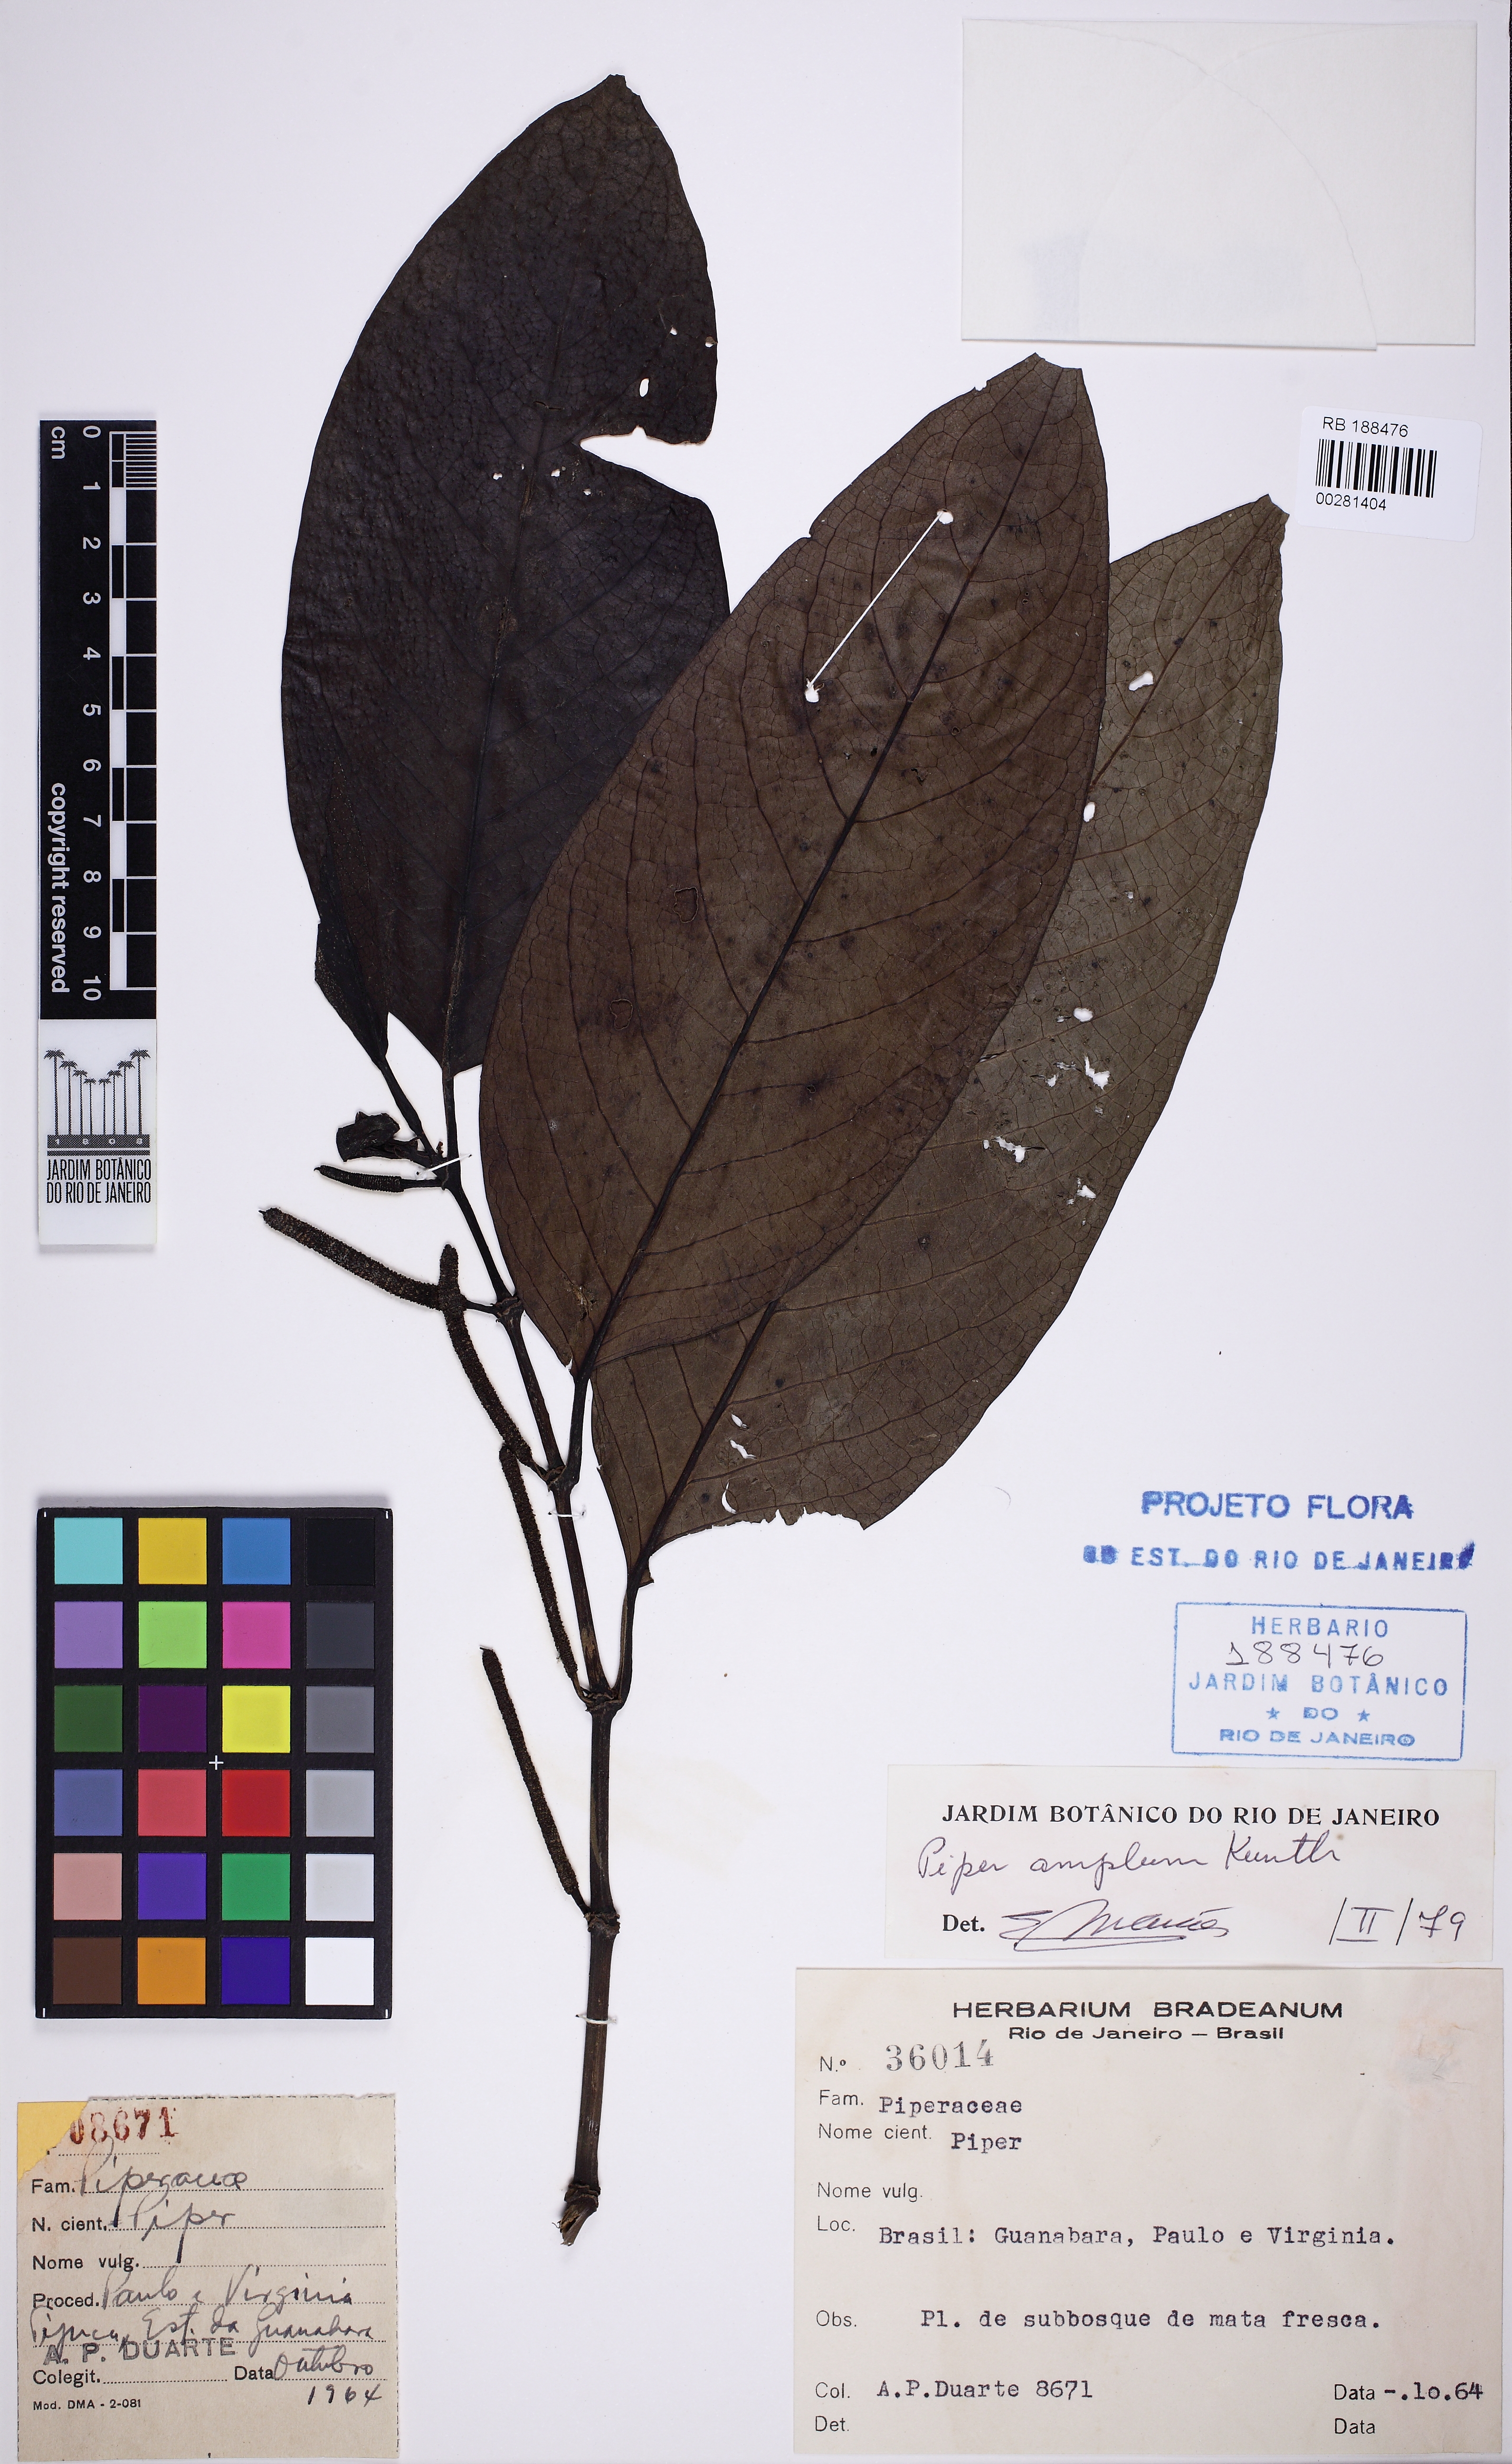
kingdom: Plantae
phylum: Tracheophyta
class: Magnoliopsida
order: Piperales
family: Piperaceae
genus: Piper
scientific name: Piper fluminense
